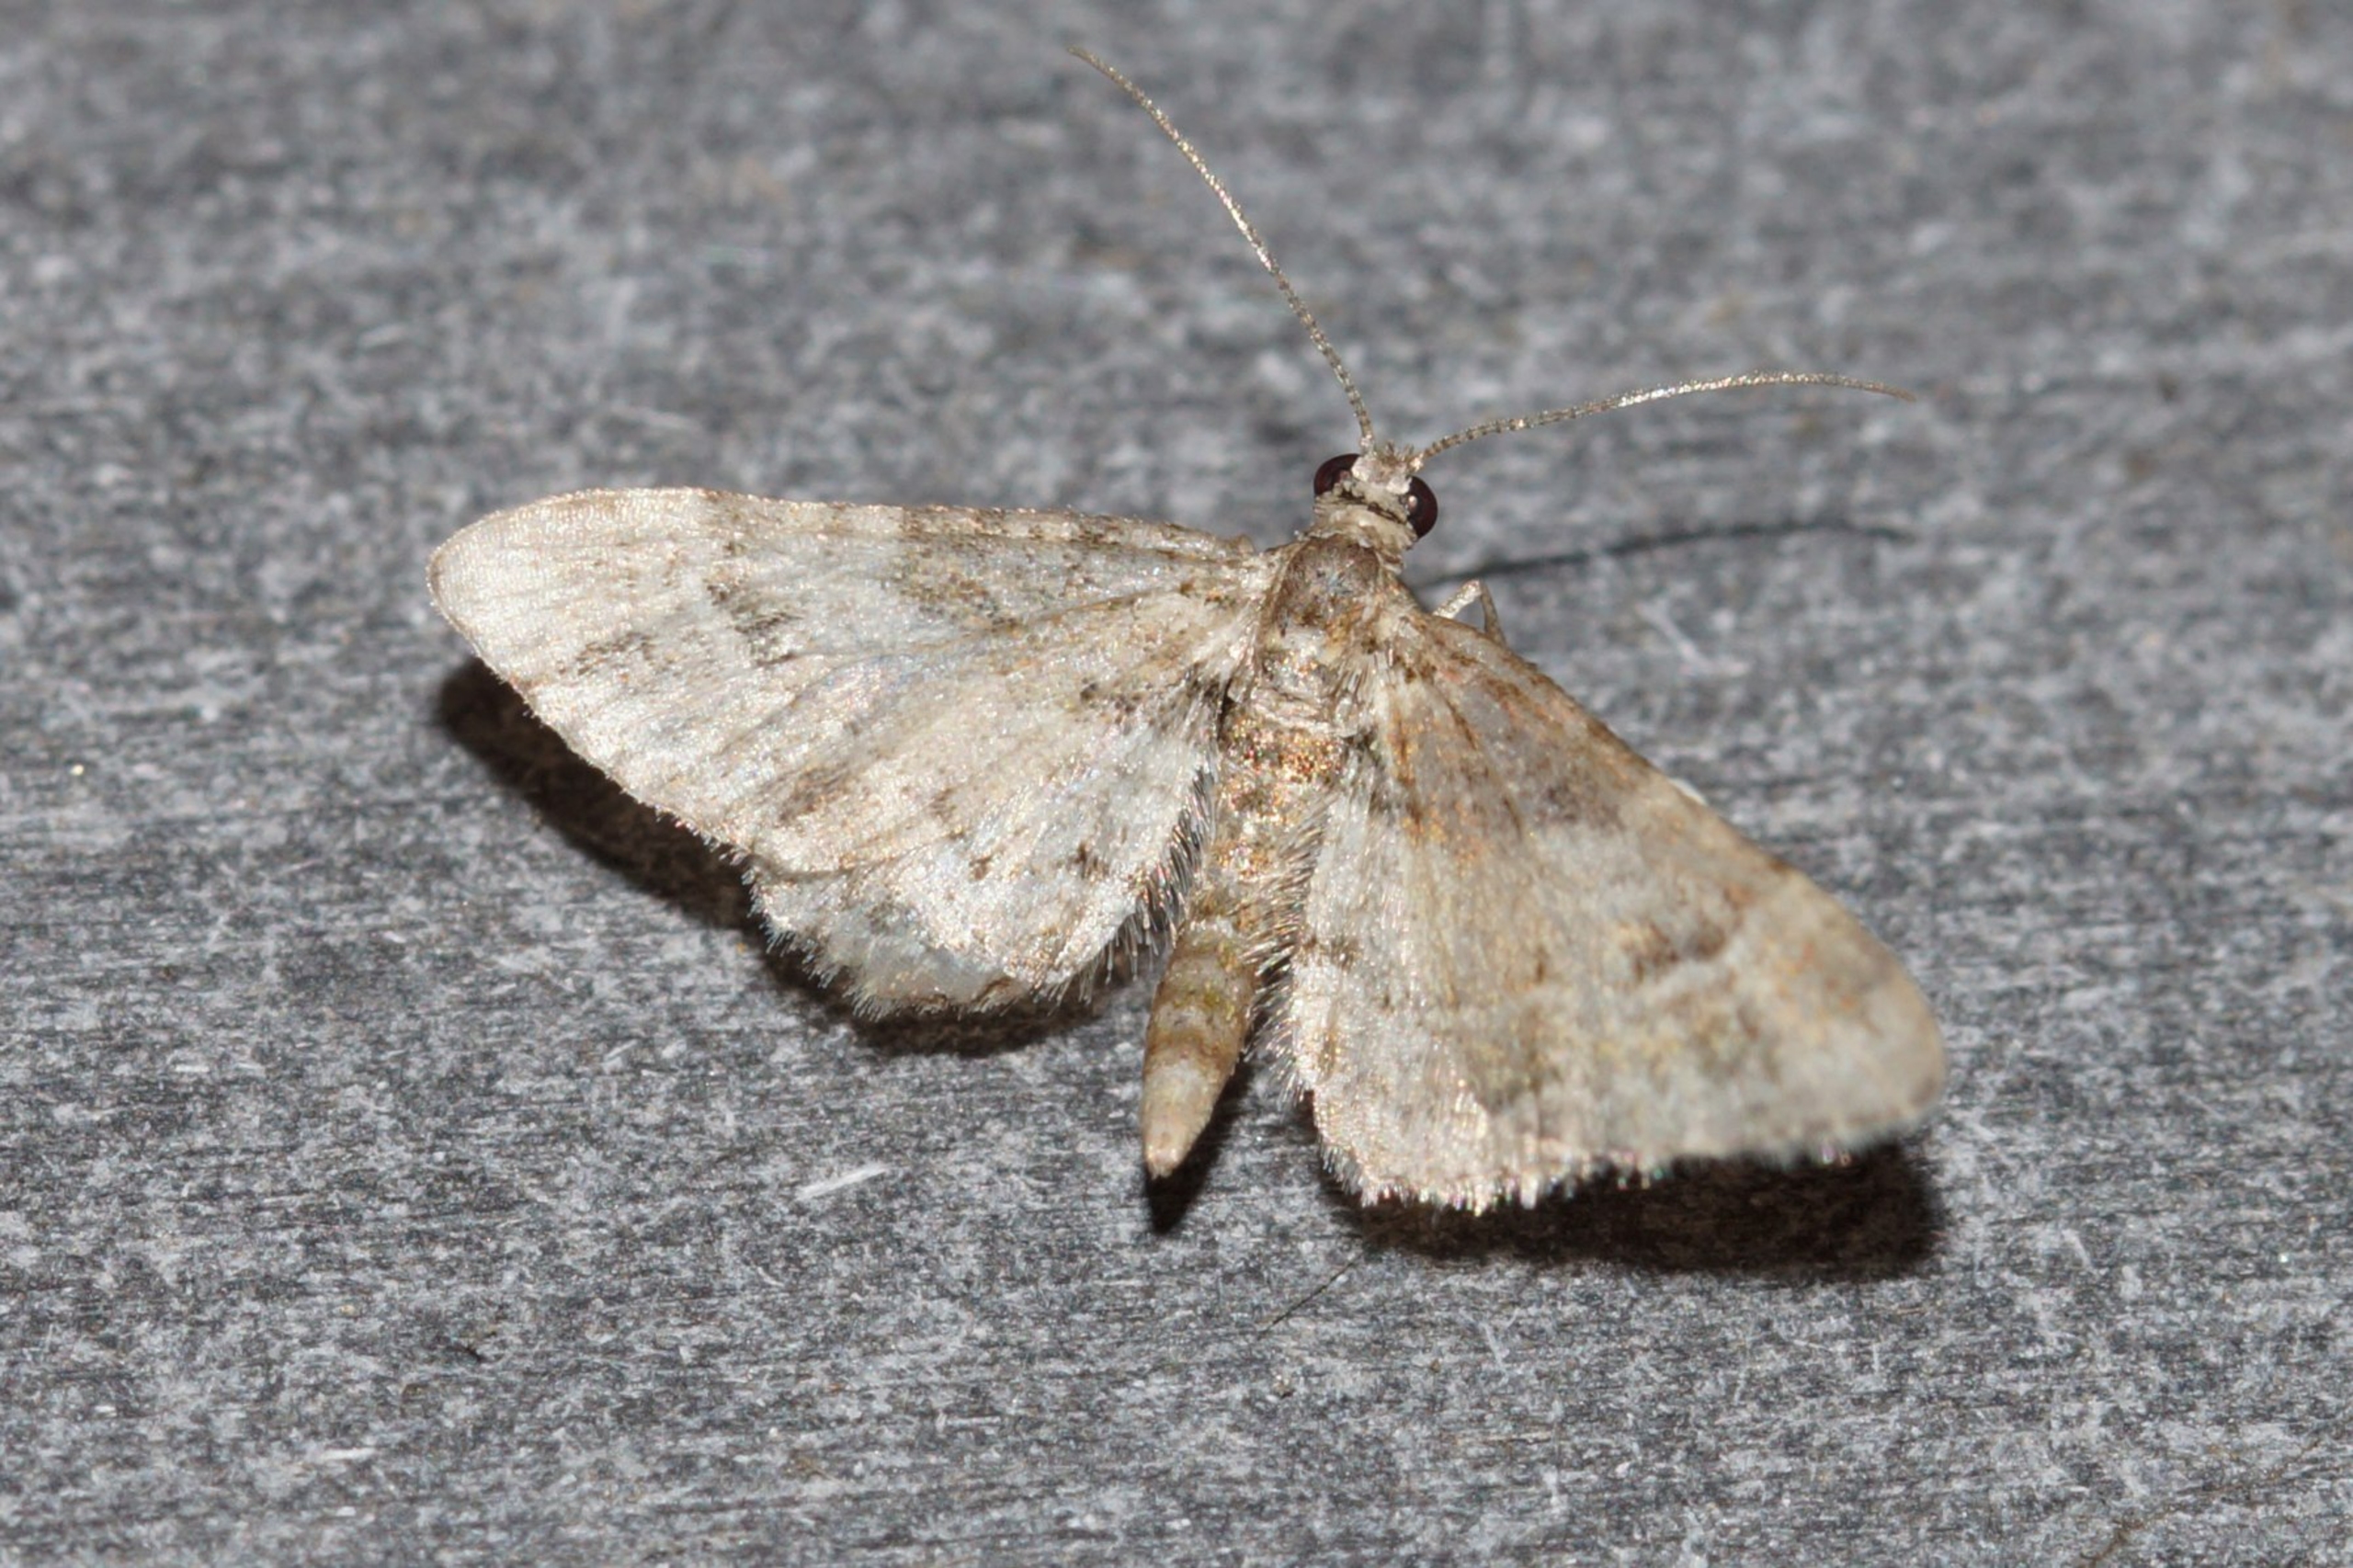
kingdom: Animalia
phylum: Arthropoda
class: Insecta
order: Lepidoptera
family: Geometridae
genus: Gymnoscelis
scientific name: Gymnoscelis rufifasciata
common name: Rødbåndet dværgmåler
